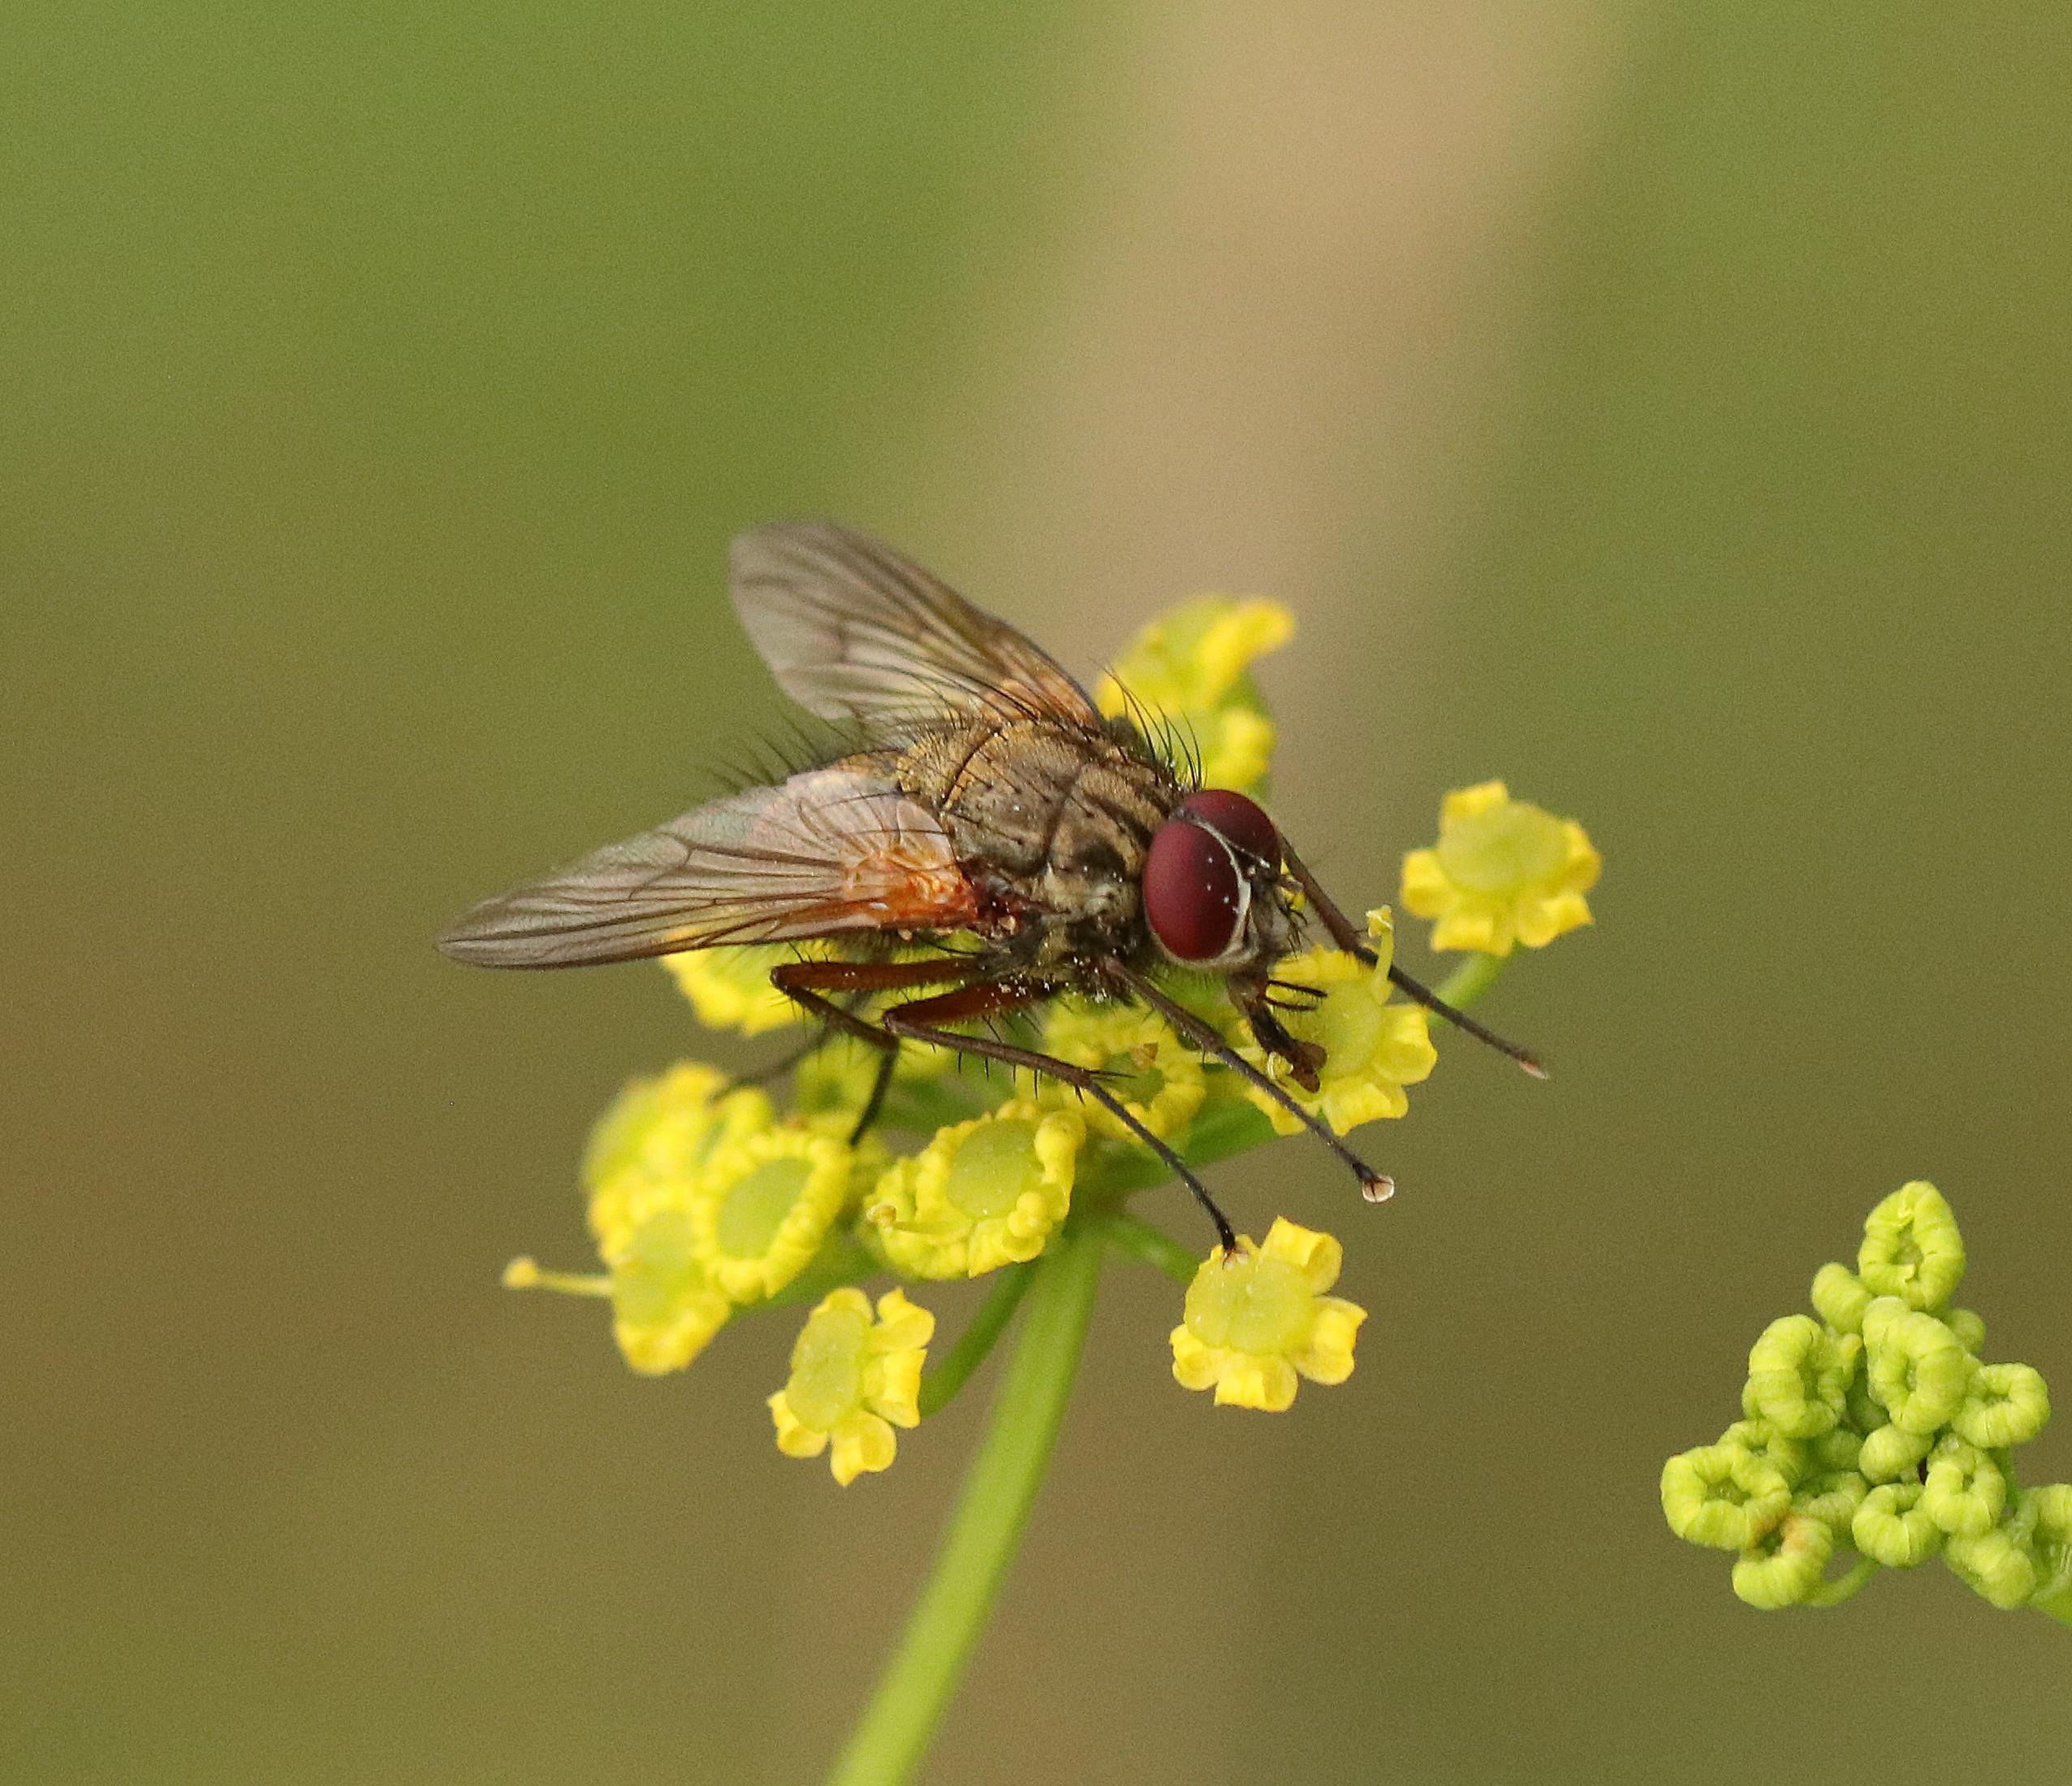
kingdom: Animalia
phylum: Arthropoda
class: Insecta
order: Diptera
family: Muscidae
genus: Phaonia
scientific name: Phaonia angelicae
